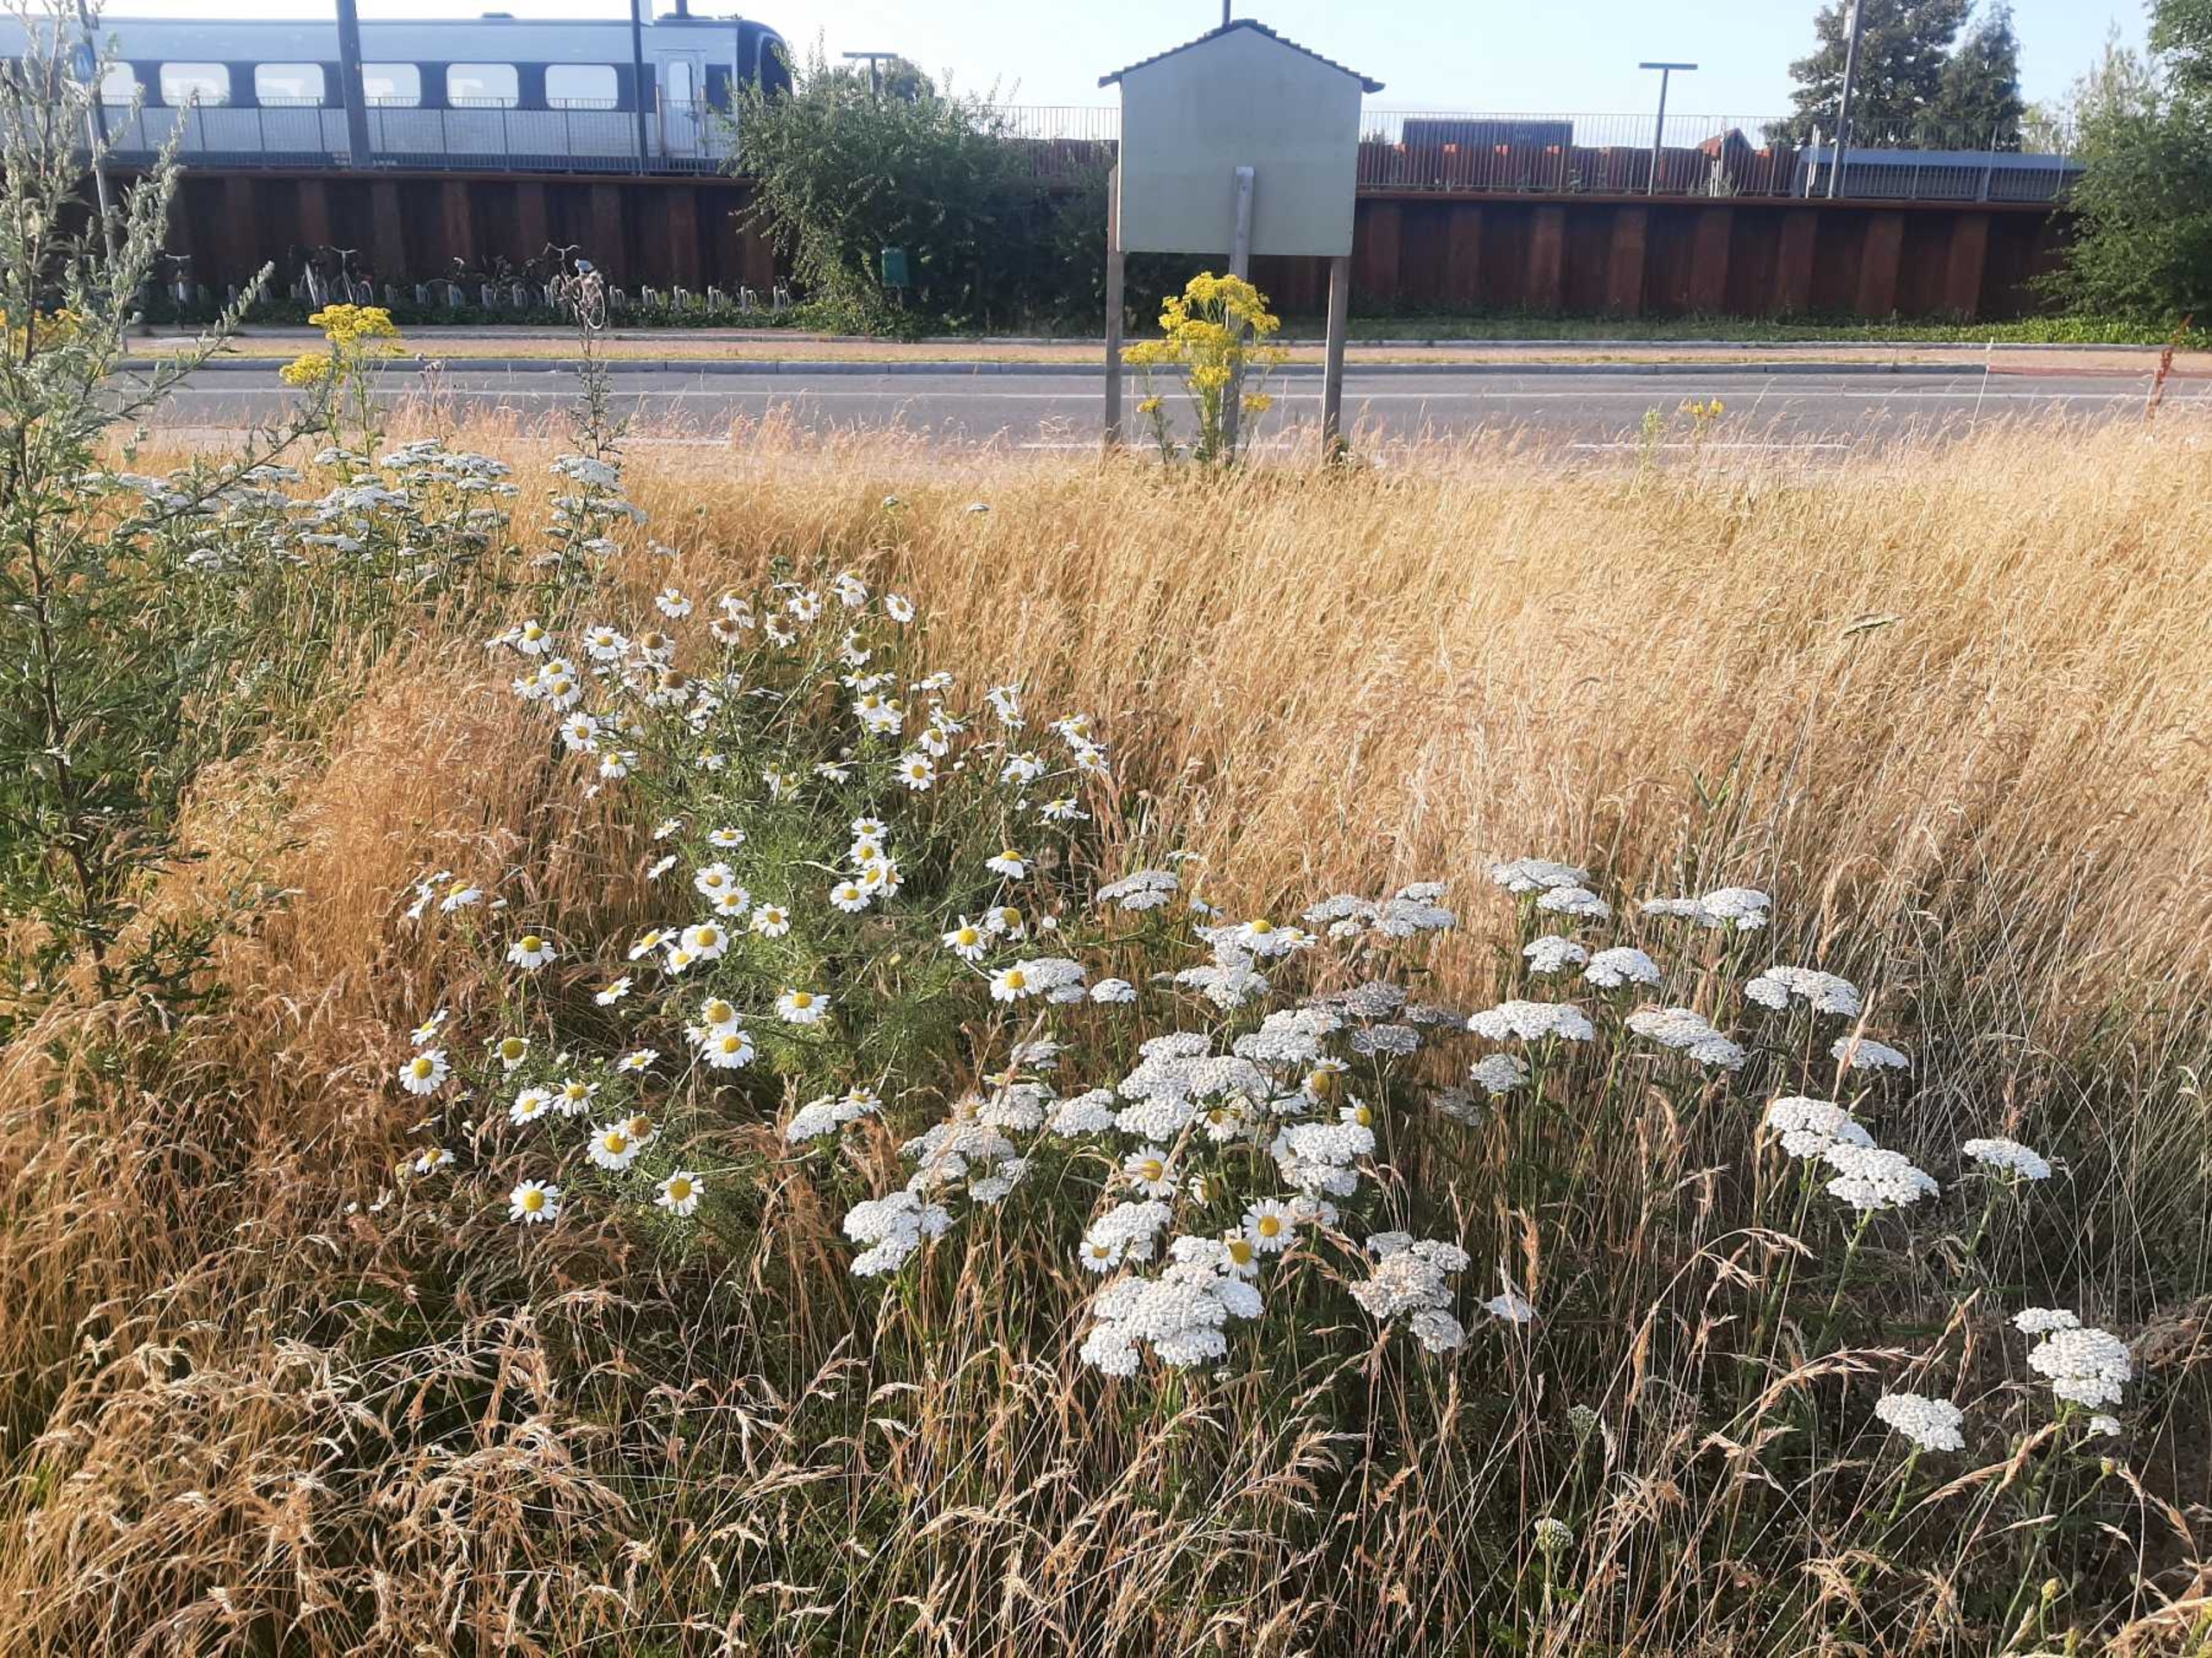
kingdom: Plantae
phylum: Tracheophyta
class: Magnoliopsida
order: Asterales
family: Asteraceae
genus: Tripleurospermum
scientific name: Tripleurospermum inodorum
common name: Lugtløs kamille
